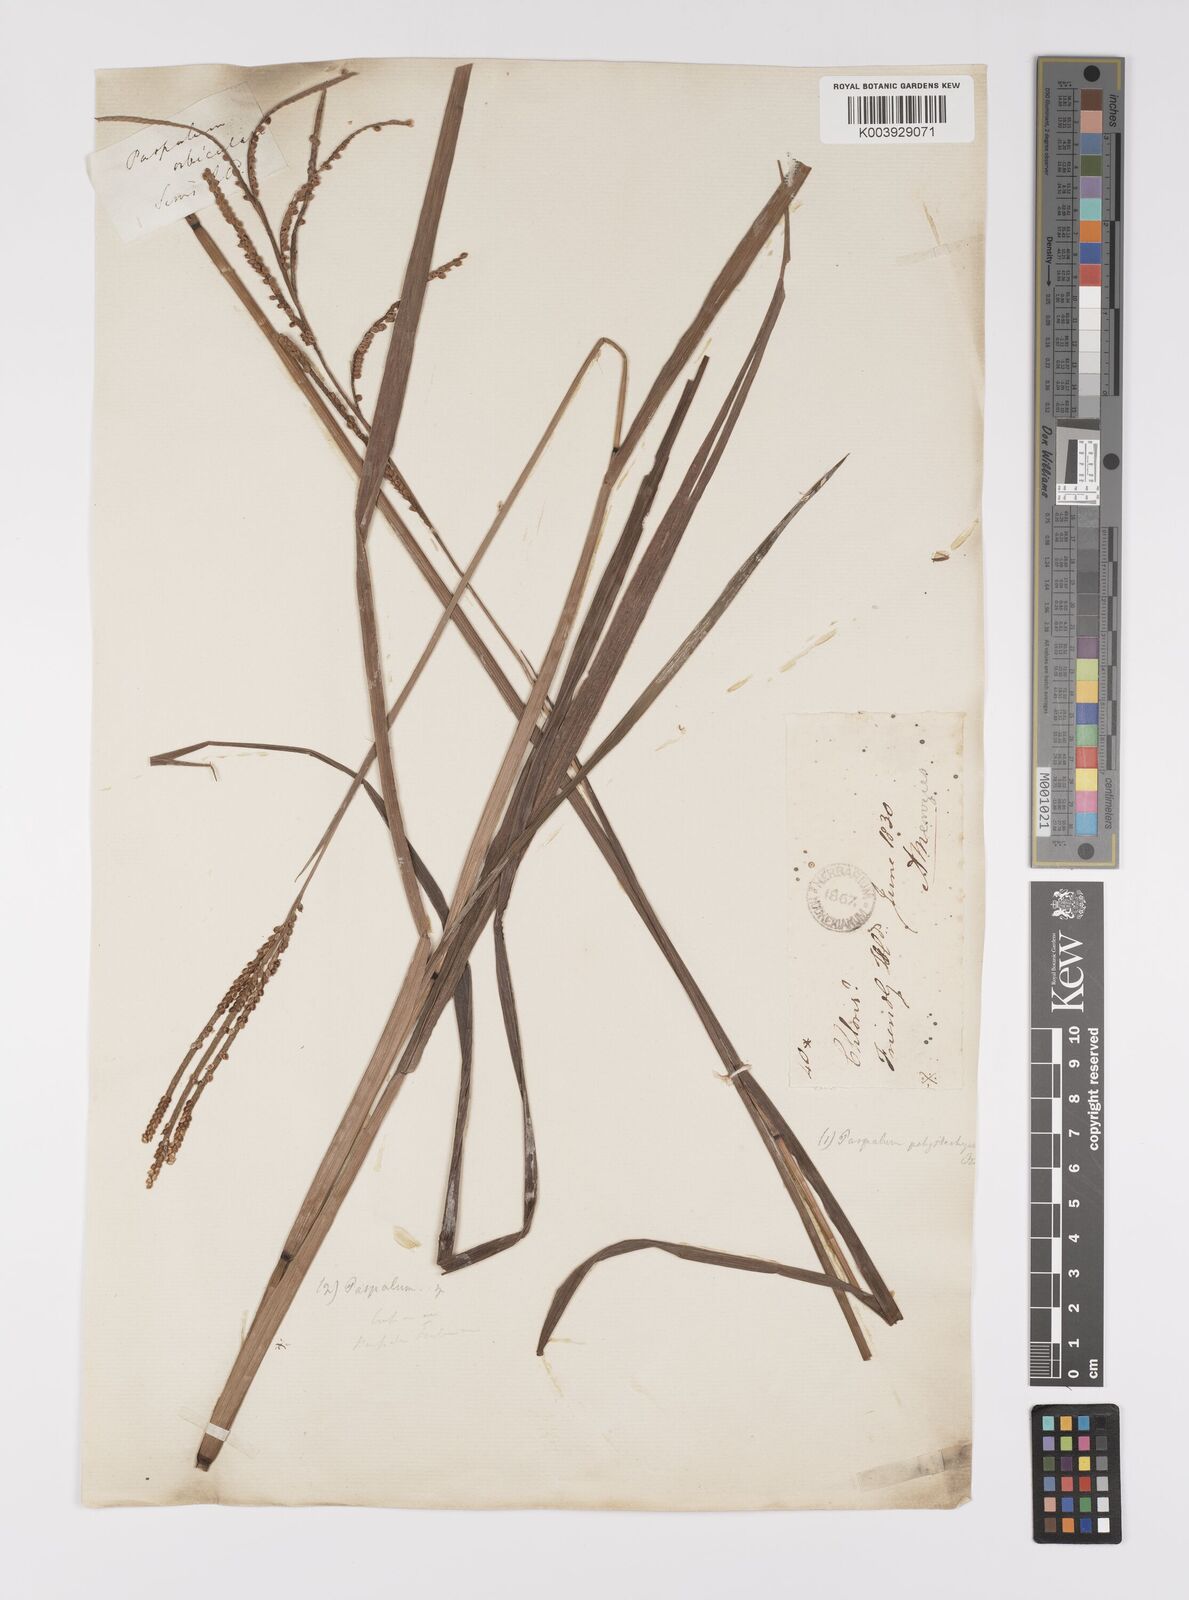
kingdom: Plantae
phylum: Tracheophyta
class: Liliopsida
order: Poales
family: Poaceae
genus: Paspalum
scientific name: Paspalum scrobiculatum
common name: Kodo millet
